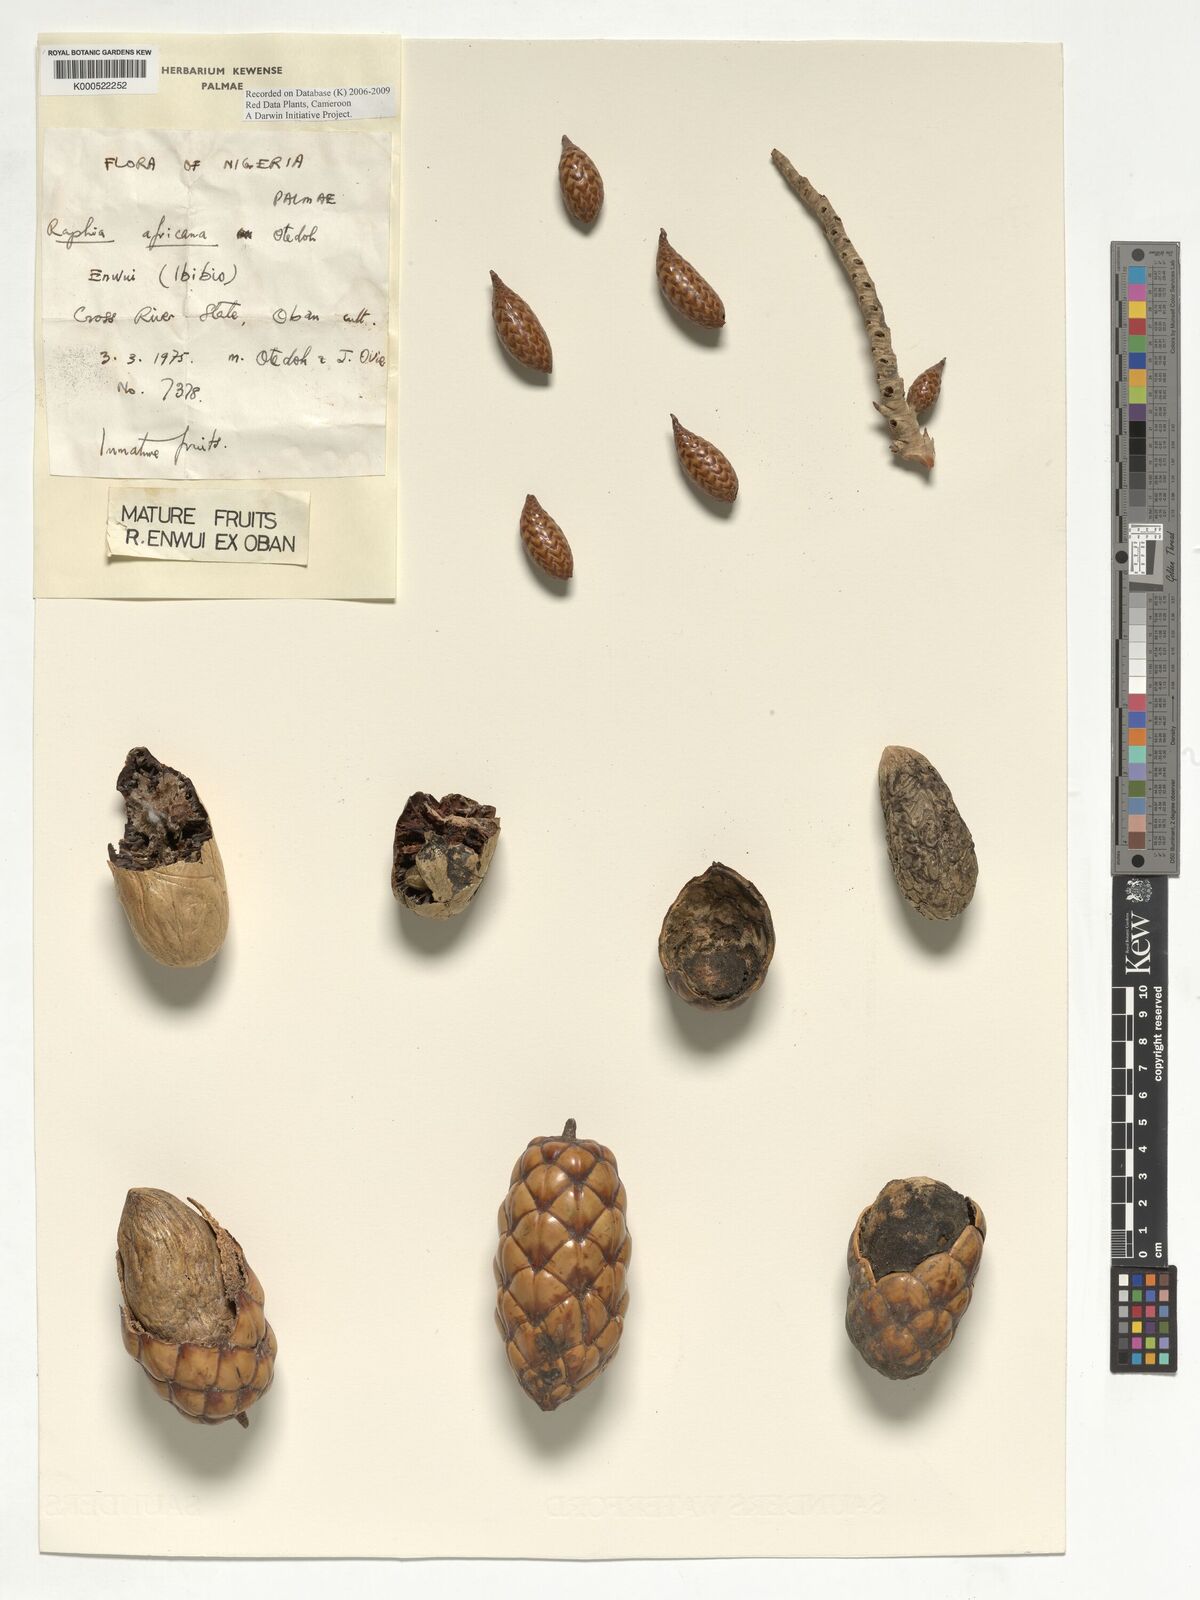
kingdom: Plantae
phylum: Tracheophyta
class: Liliopsida
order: Arecales
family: Arecaceae
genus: Raphia
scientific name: Raphia africana
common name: Raphia palm
